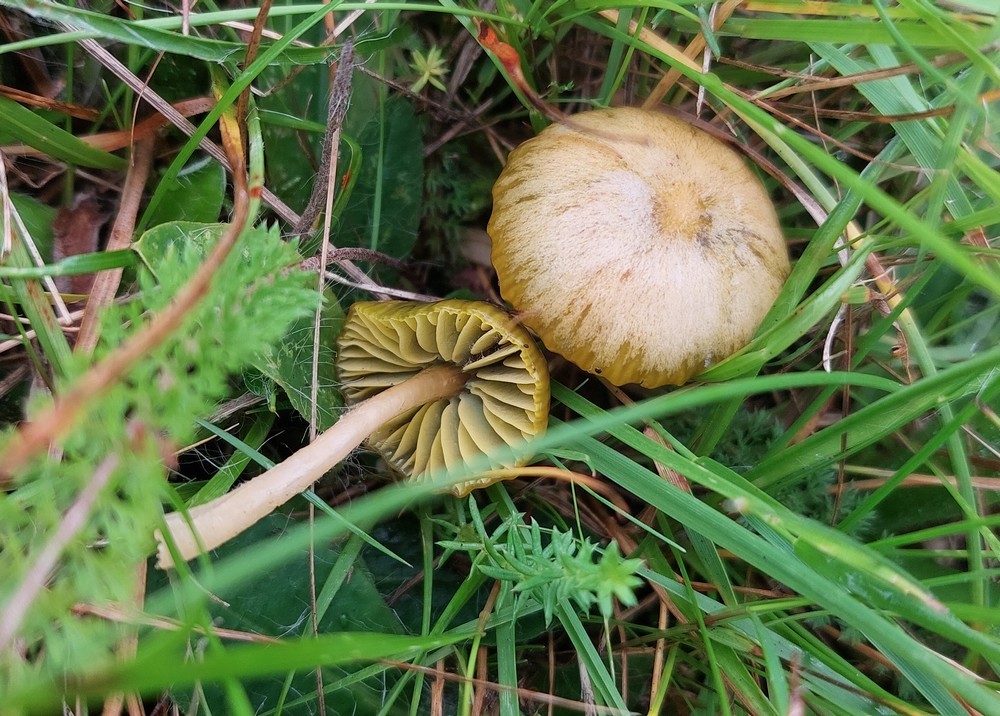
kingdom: Fungi
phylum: Basidiomycota
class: Agaricomycetes
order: Agaricales
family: Hygrophoraceae
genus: Gliophorus
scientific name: Gliophorus psittacinus
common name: papegøje-vokshat
